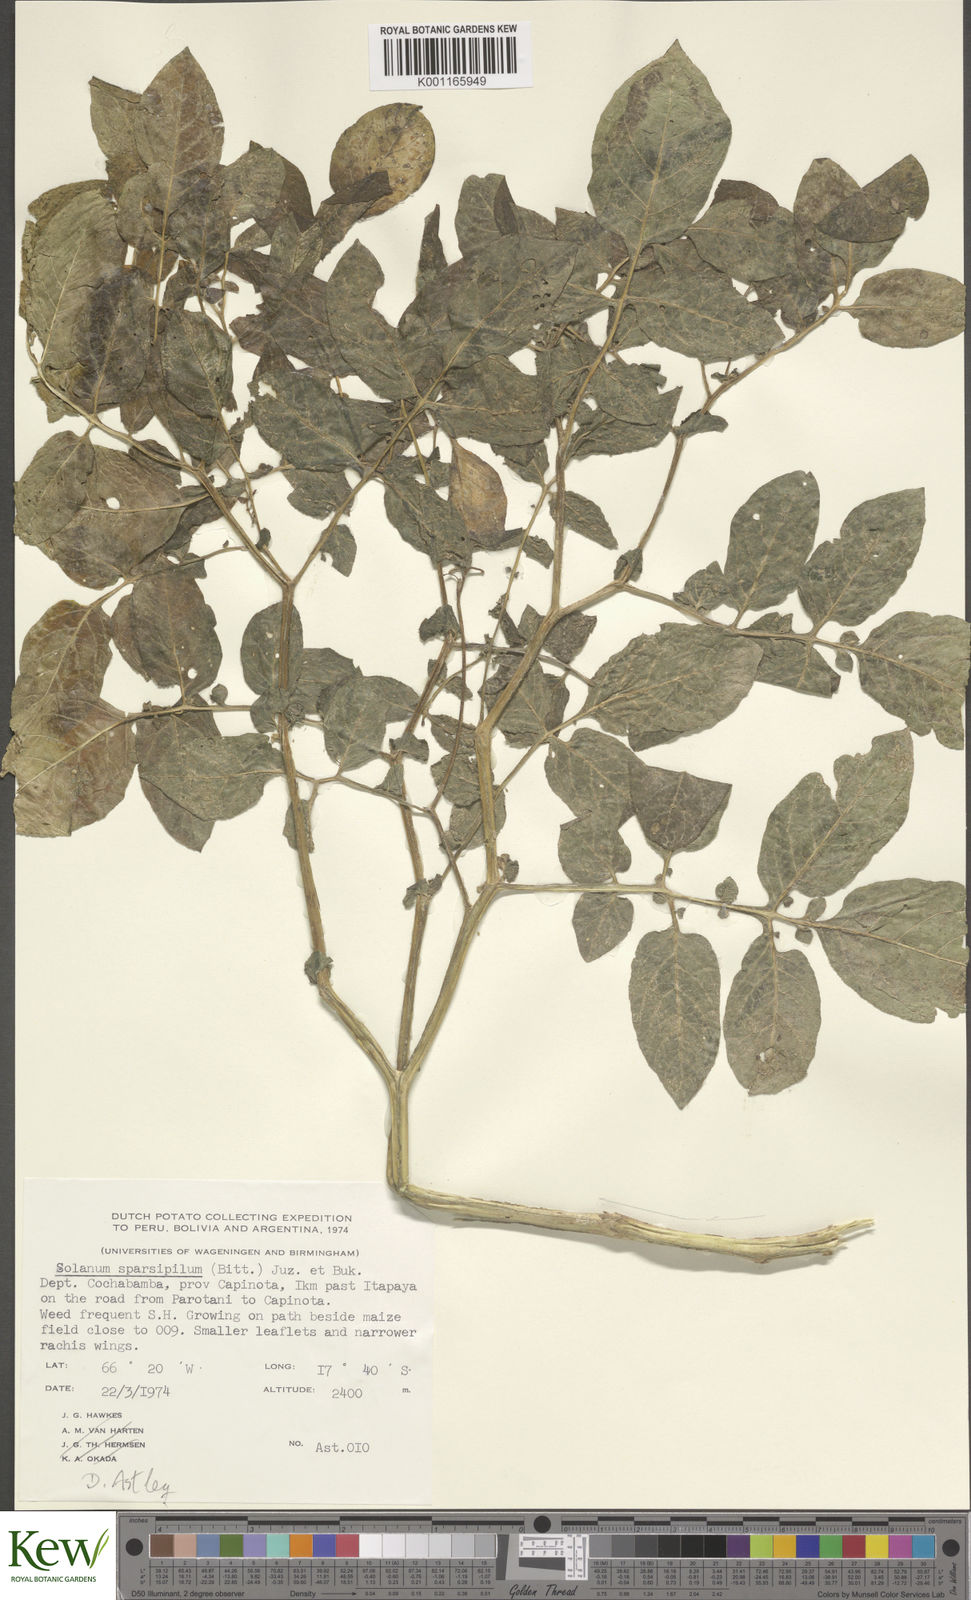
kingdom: Plantae
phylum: Tracheophyta
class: Magnoliopsida
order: Solanales
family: Solanaceae
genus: Solanum
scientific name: Solanum brevicaule
